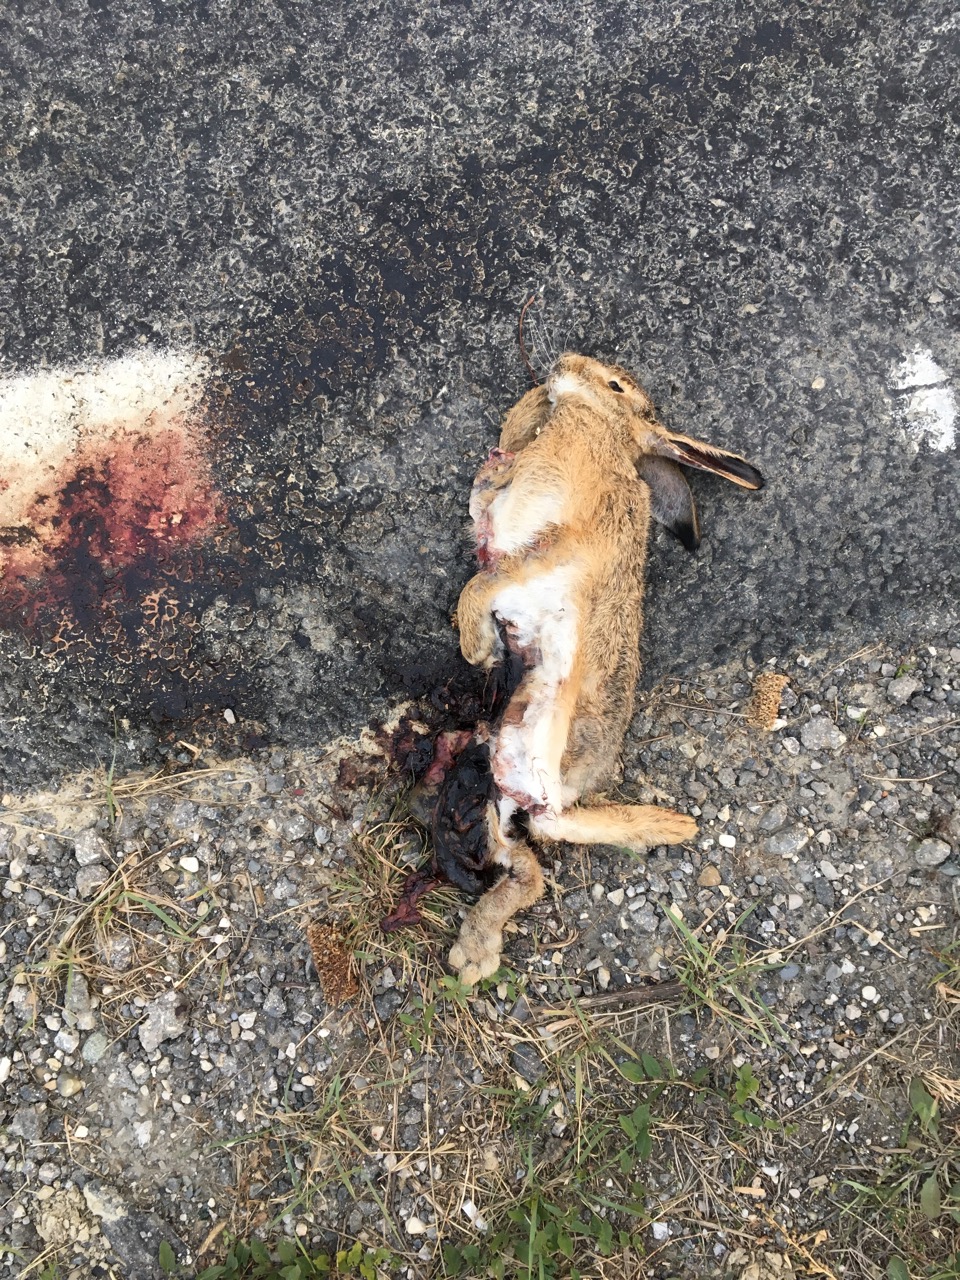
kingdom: Animalia
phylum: Chordata
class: Mammalia
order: Lagomorpha
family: Leporidae
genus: Lepus
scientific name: Lepus europaeus
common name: European hare
